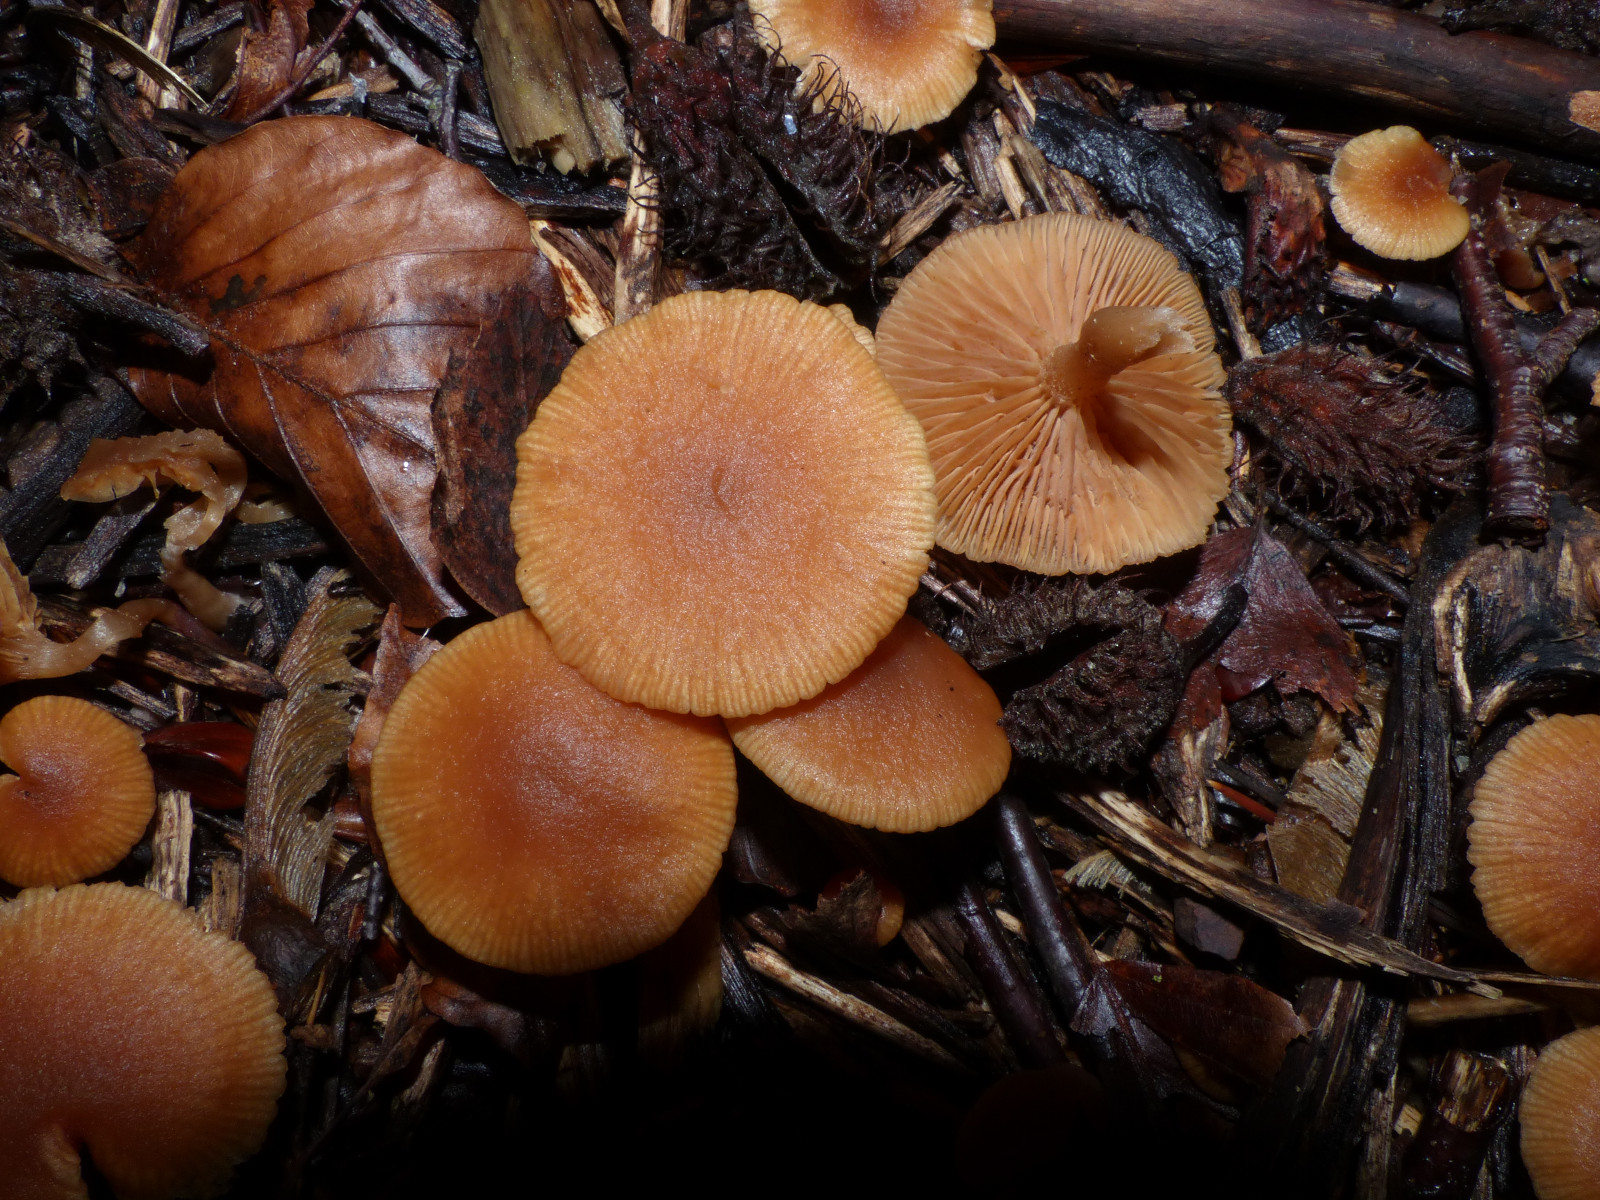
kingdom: Fungi
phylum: Basidiomycota
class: Agaricomycetes
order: Agaricales
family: Tubariaceae
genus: Tubaria
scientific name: Tubaria furfuracea
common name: kliddet fnughat
